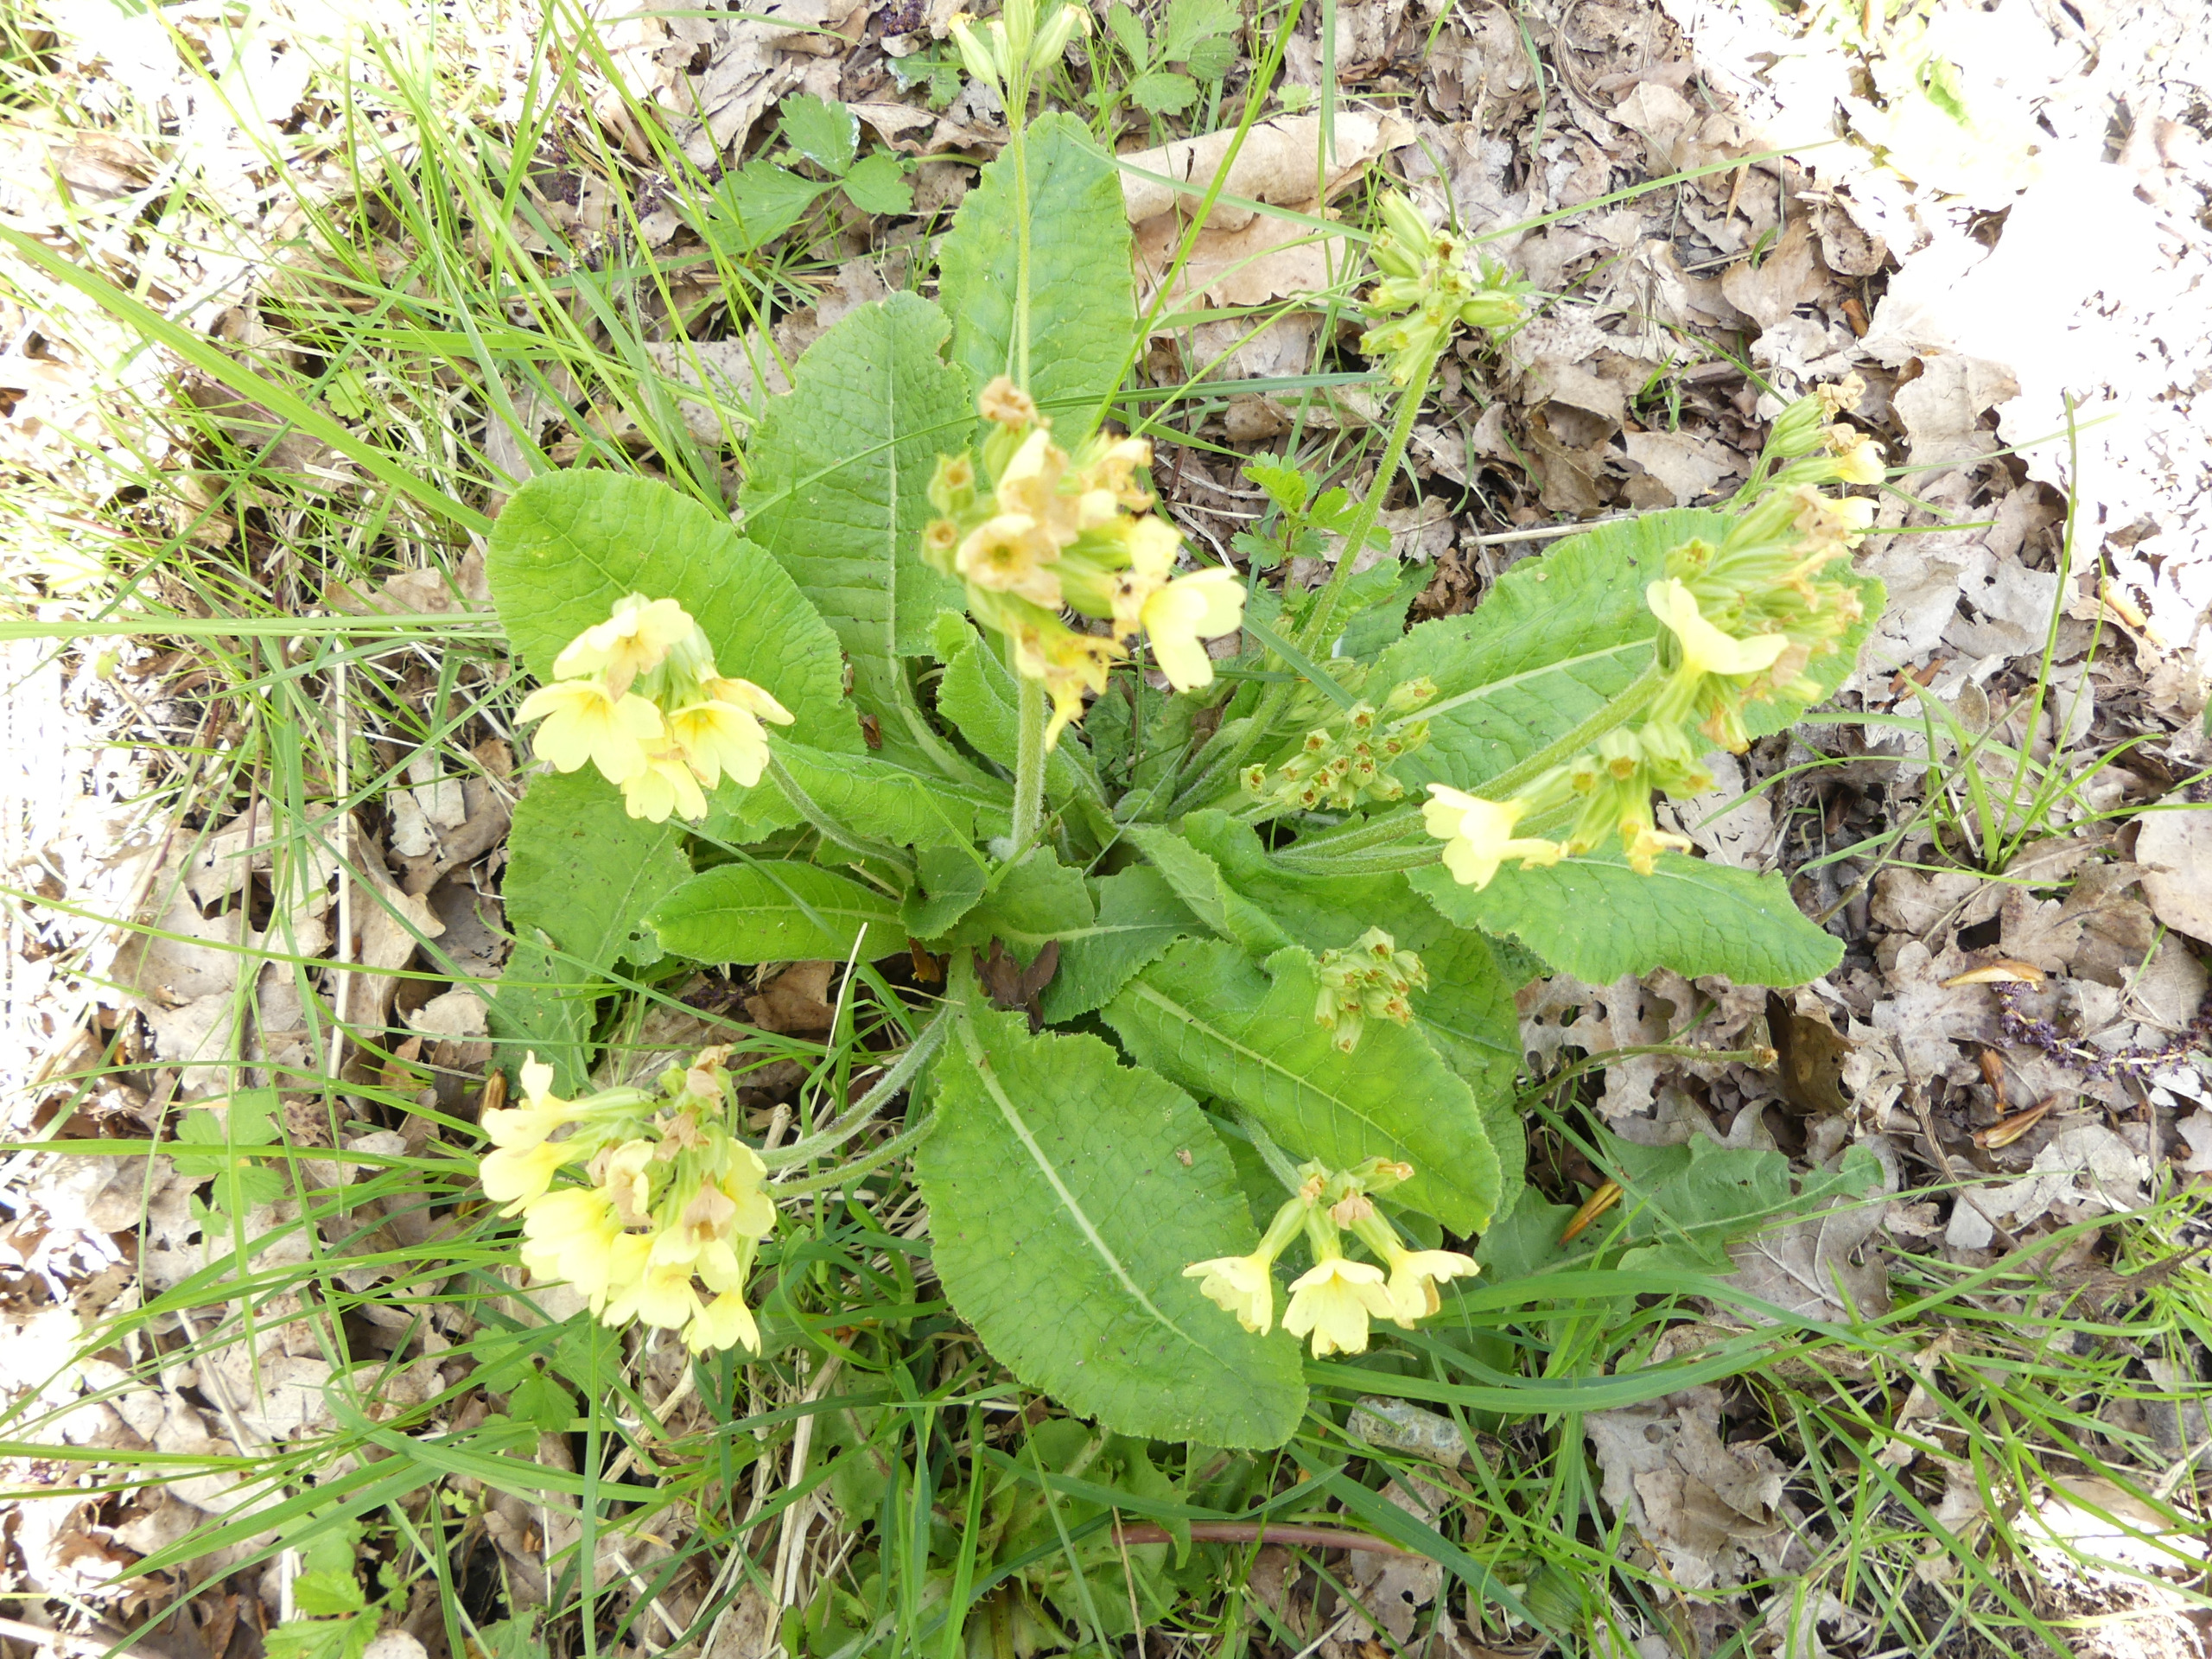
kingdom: Plantae
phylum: Tracheophyta
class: Magnoliopsida
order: Ericales
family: Primulaceae
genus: Primula
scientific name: Primula elatior
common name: Fladkravet kodriver
